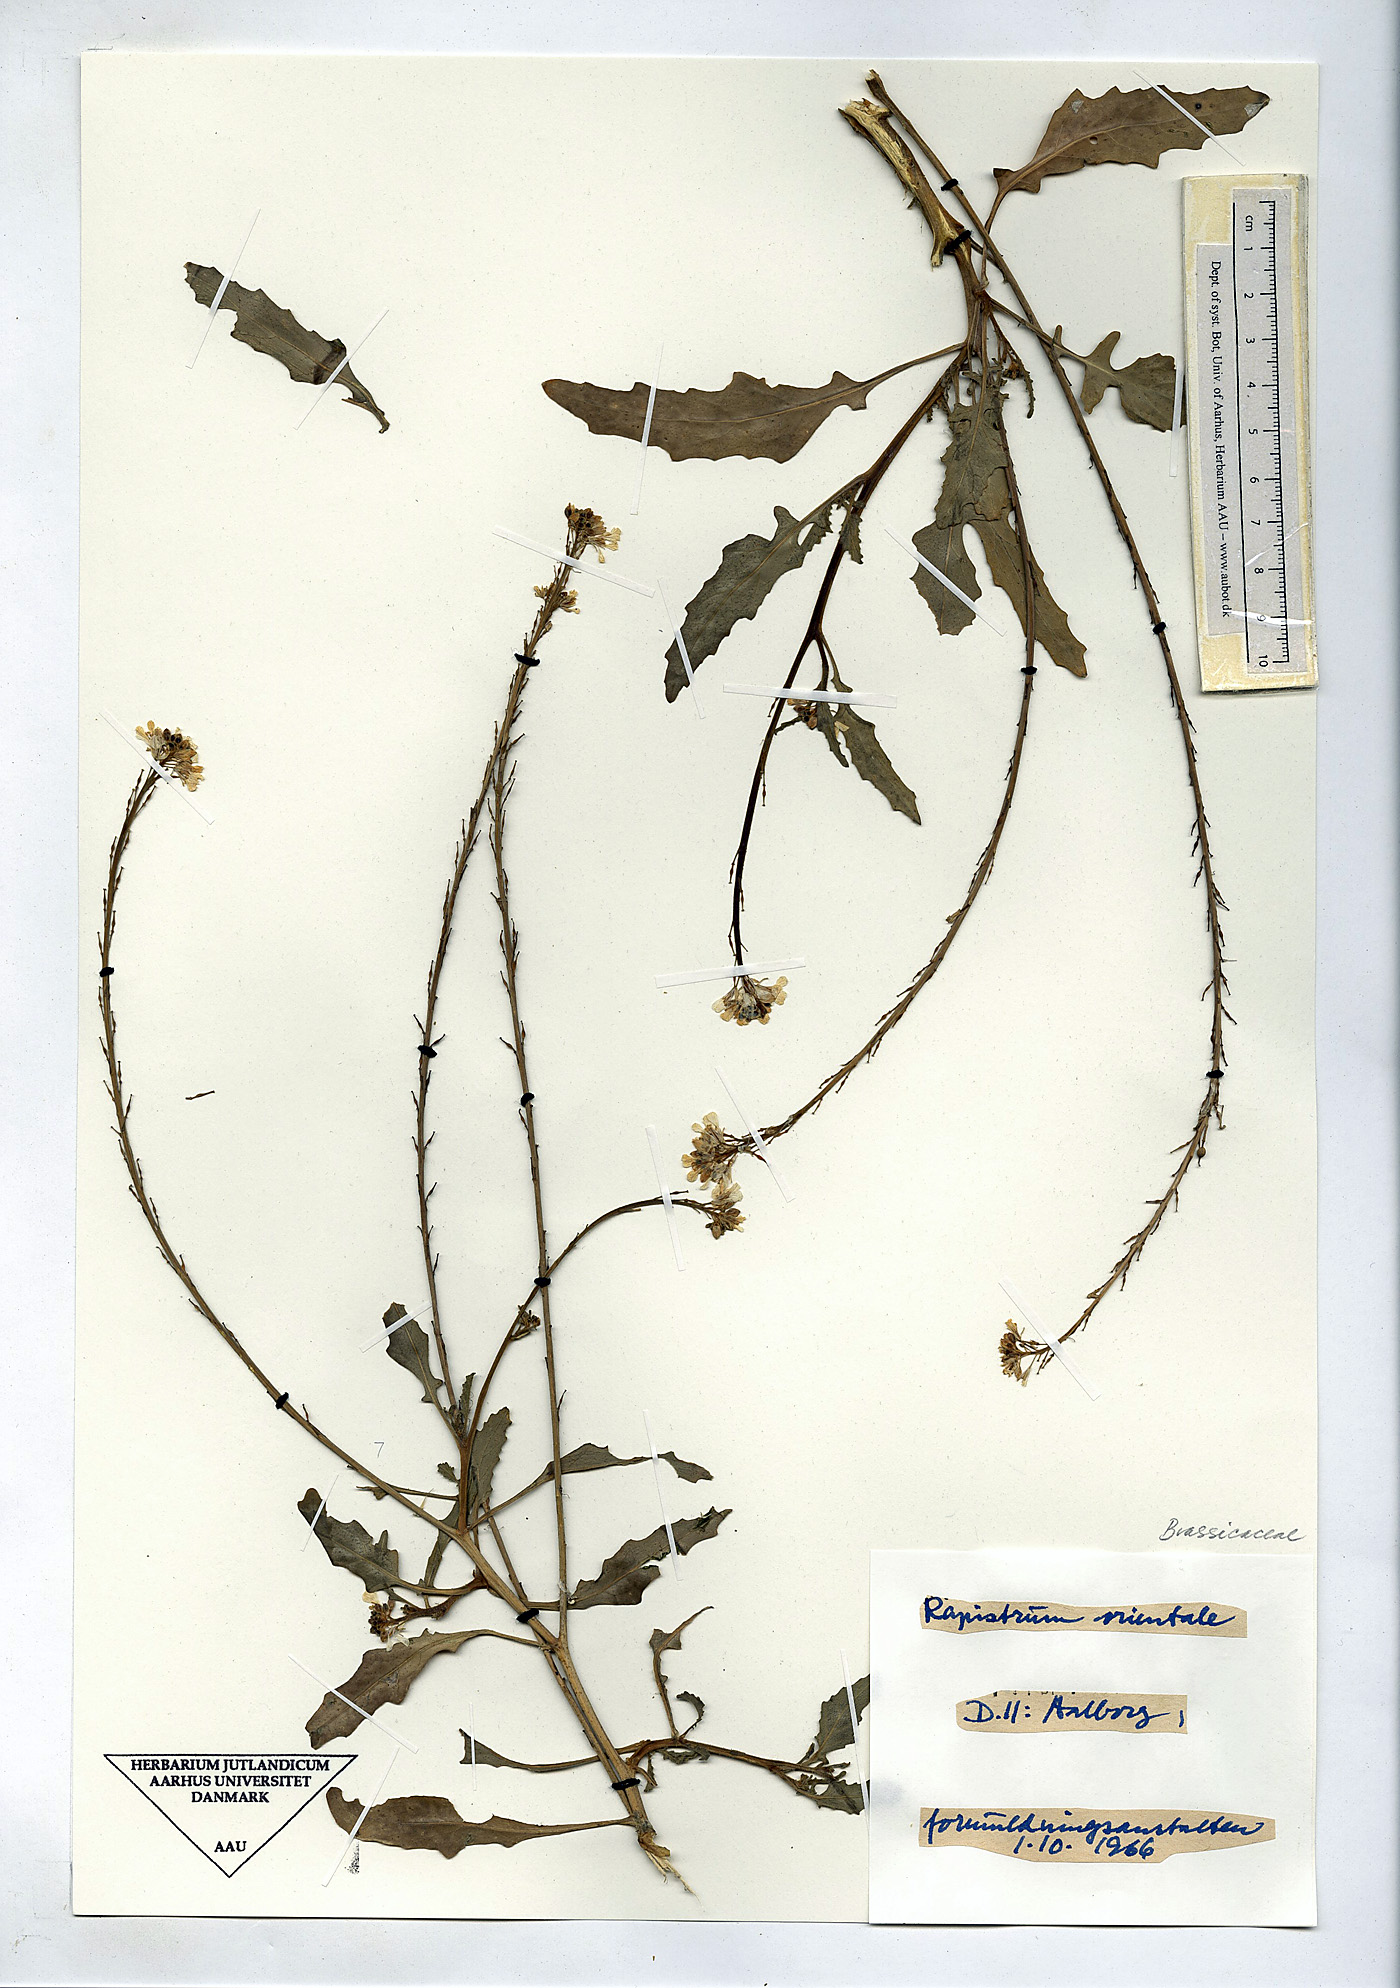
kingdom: Plantae
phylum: Tracheophyta
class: Magnoliopsida
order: Brassicales
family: Brassicaceae
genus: Rapistrum
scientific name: Rapistrum rugosum
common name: Annual bastardcabbage
